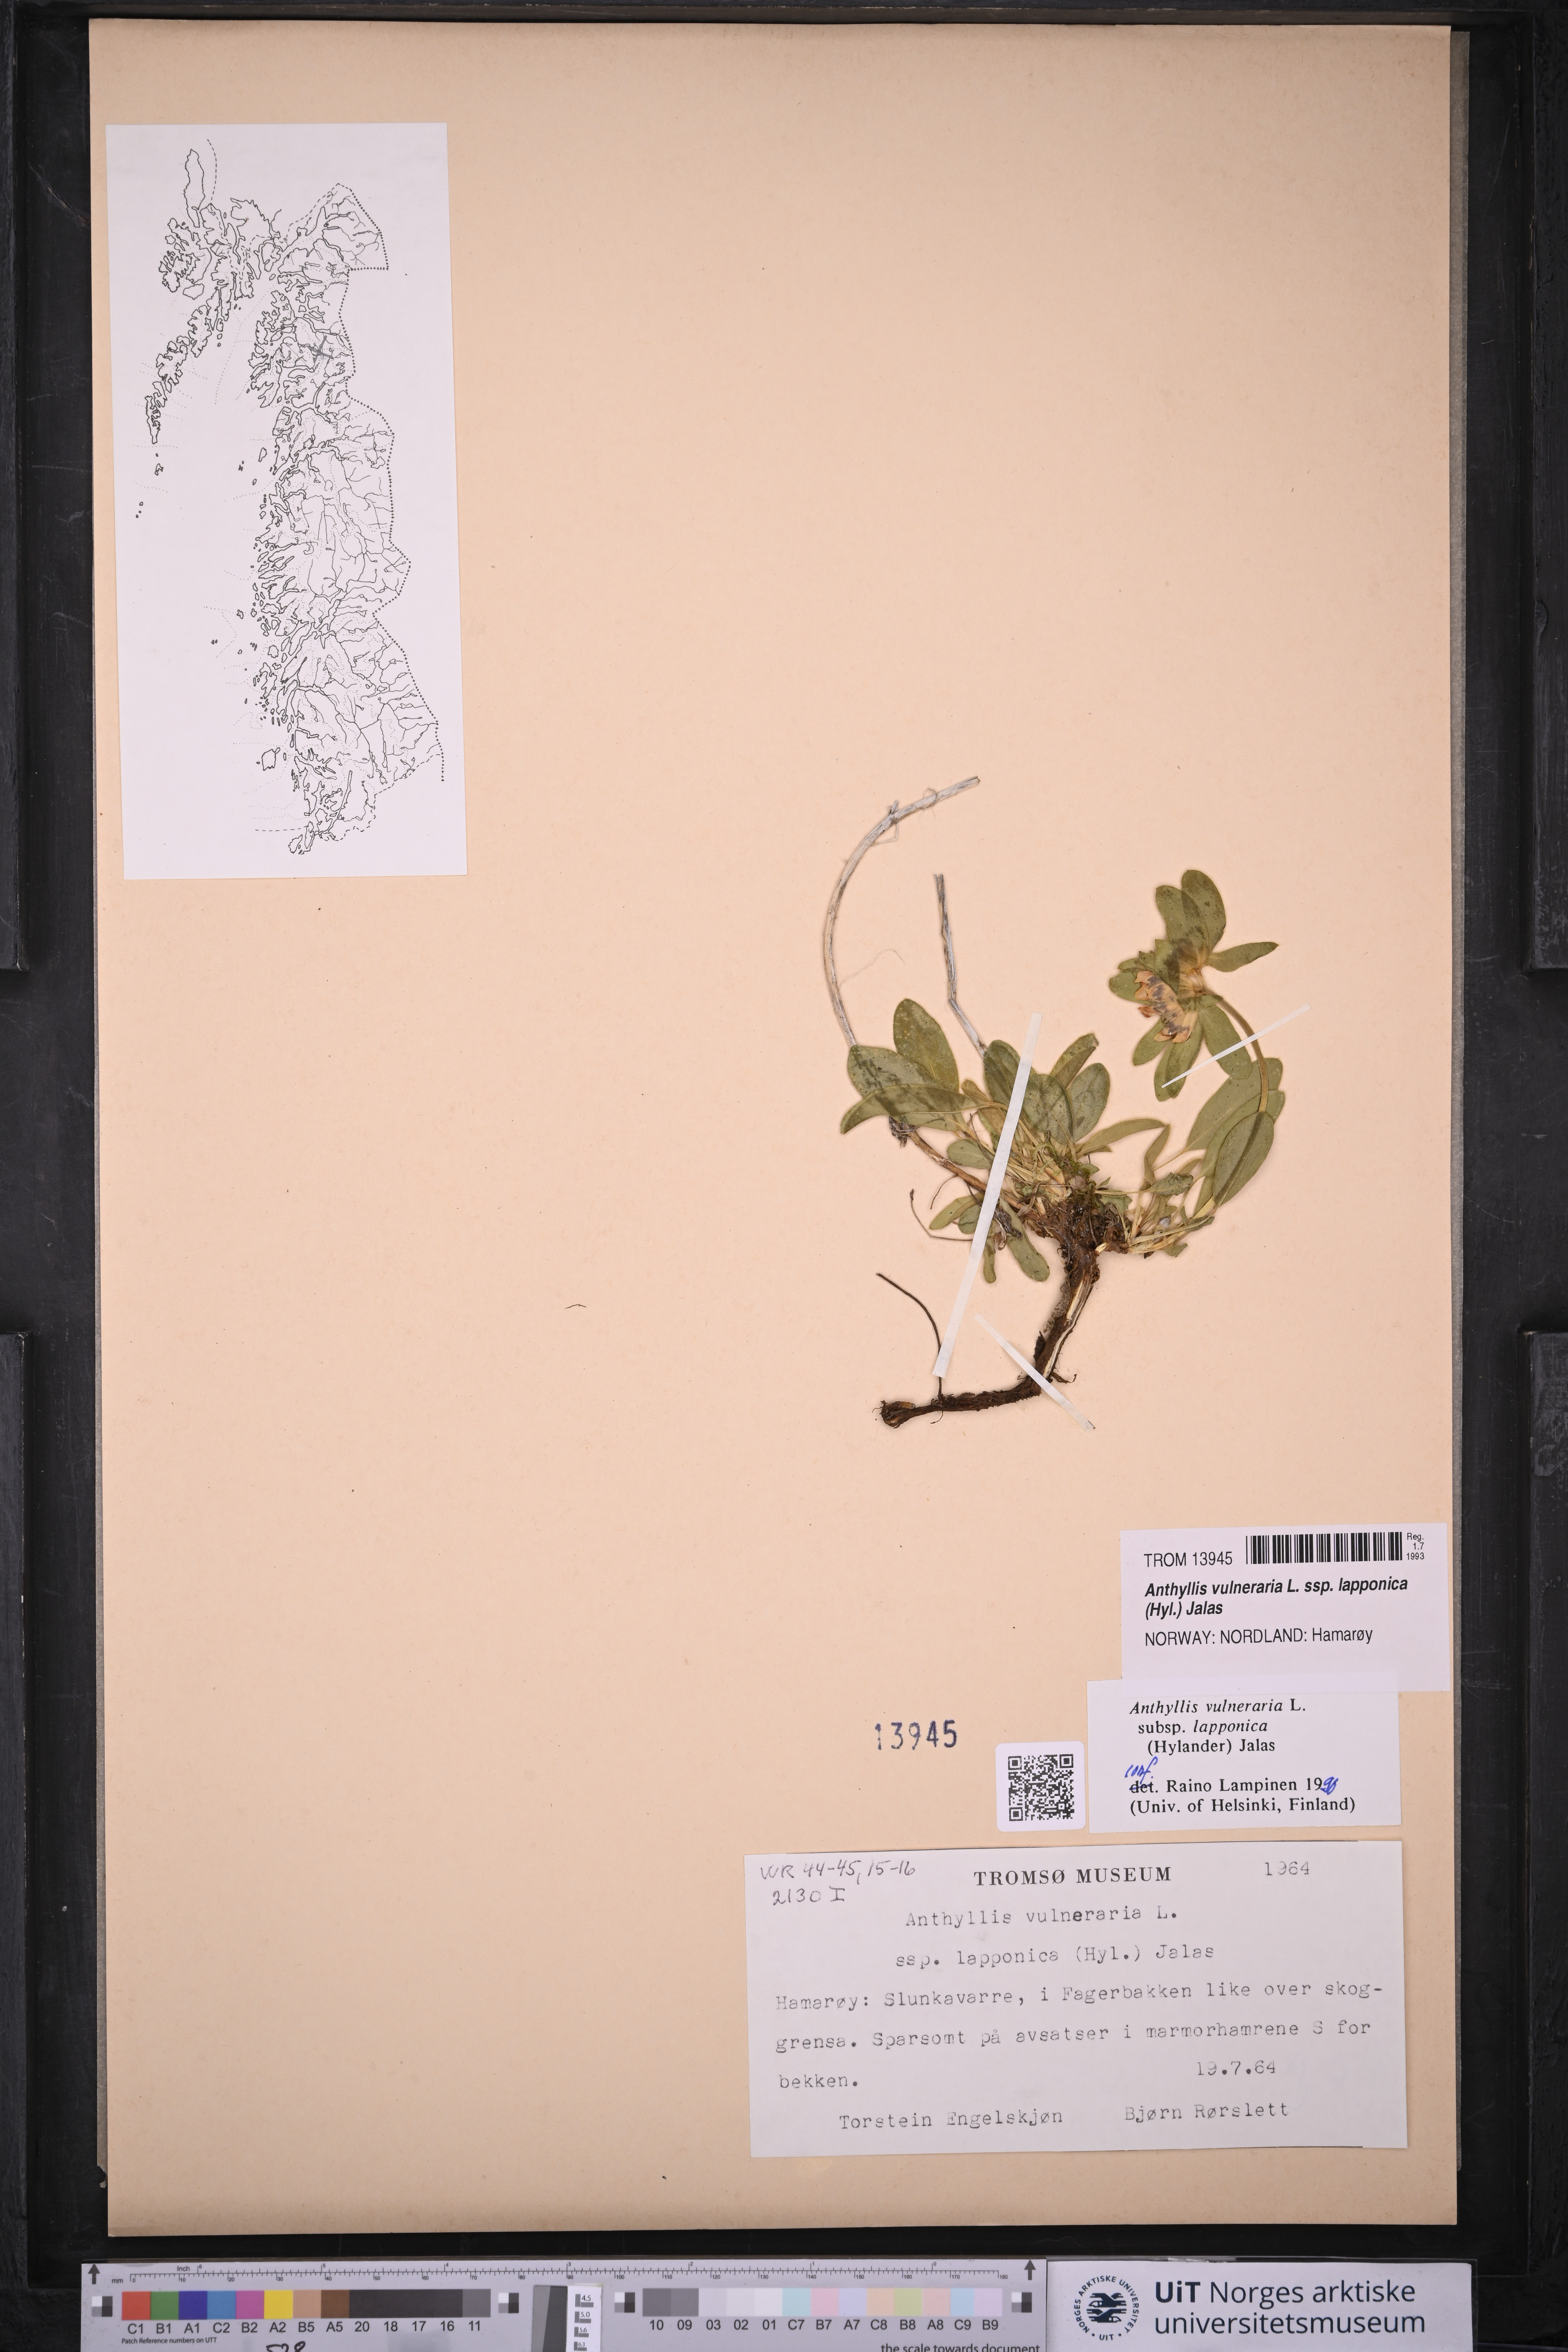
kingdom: Plantae
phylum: Tracheophyta
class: Magnoliopsida
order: Fabales
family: Fabaceae
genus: Anthyllis
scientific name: Anthyllis vulneraria
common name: Kidney vetch
